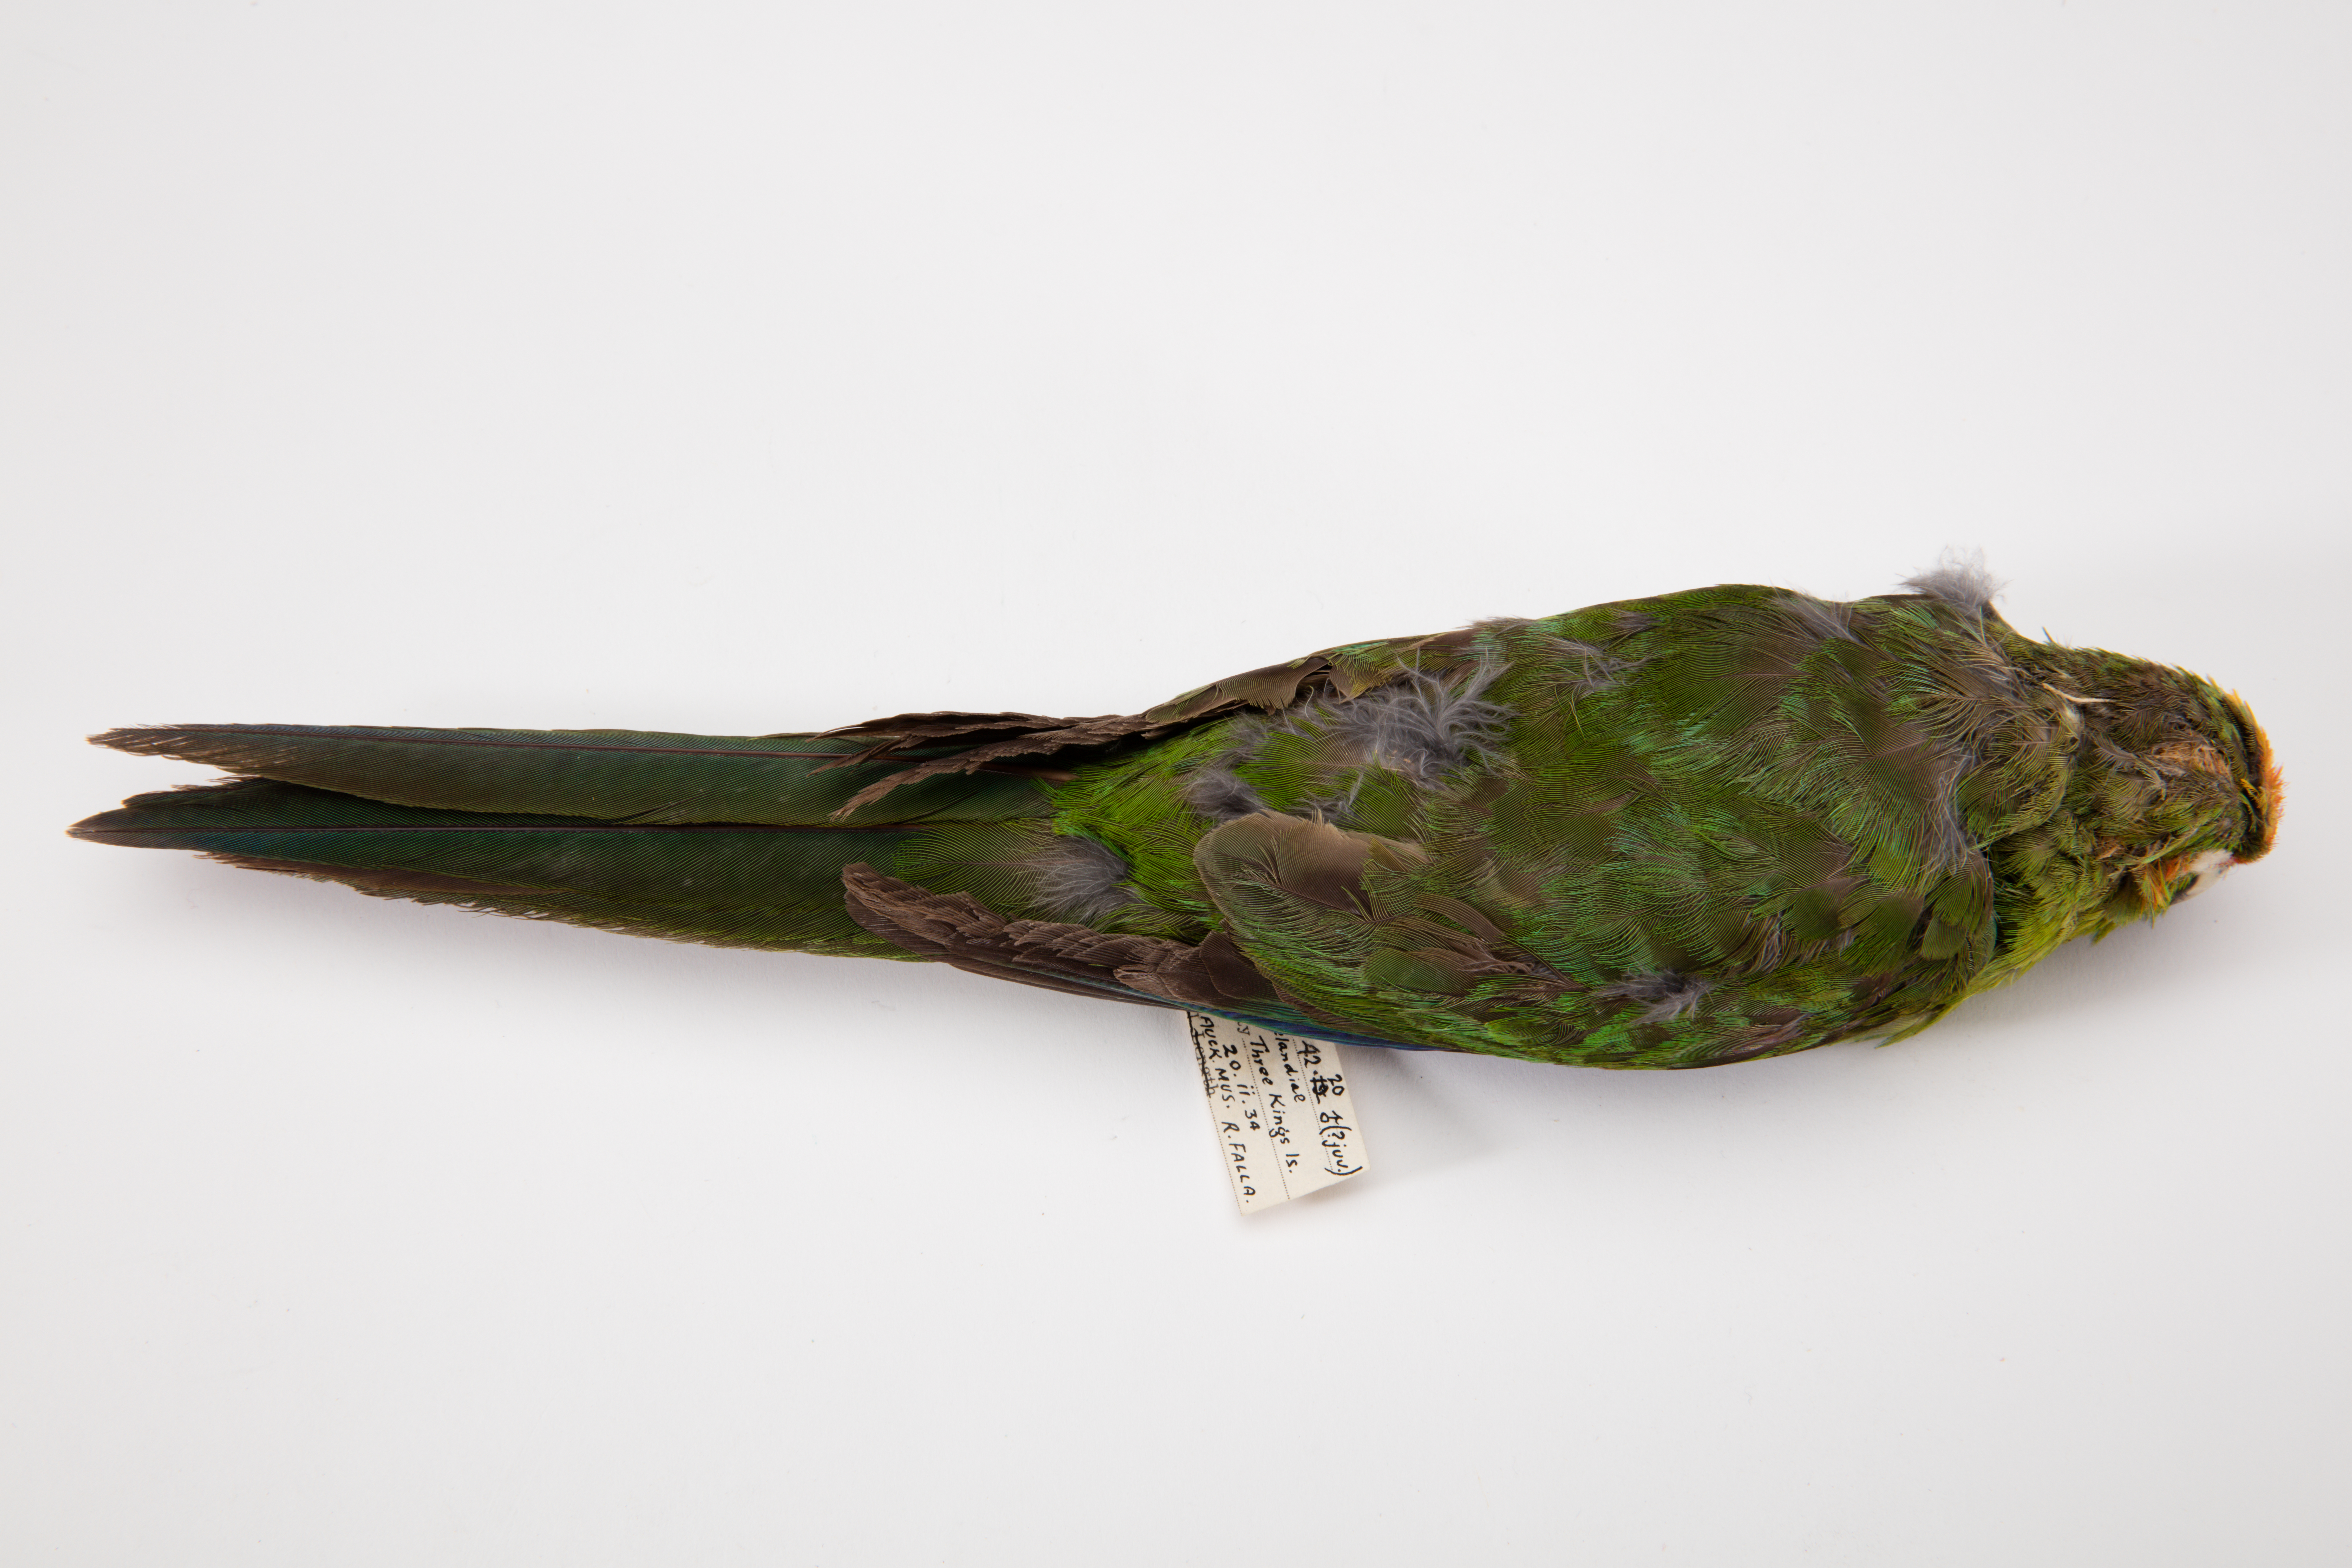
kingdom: Animalia
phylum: Chordata
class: Aves
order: Psittaciformes
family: Psittacidae
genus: Cyanoramphus
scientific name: Cyanoramphus novaezelandiae
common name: Red-fronted parakeet
